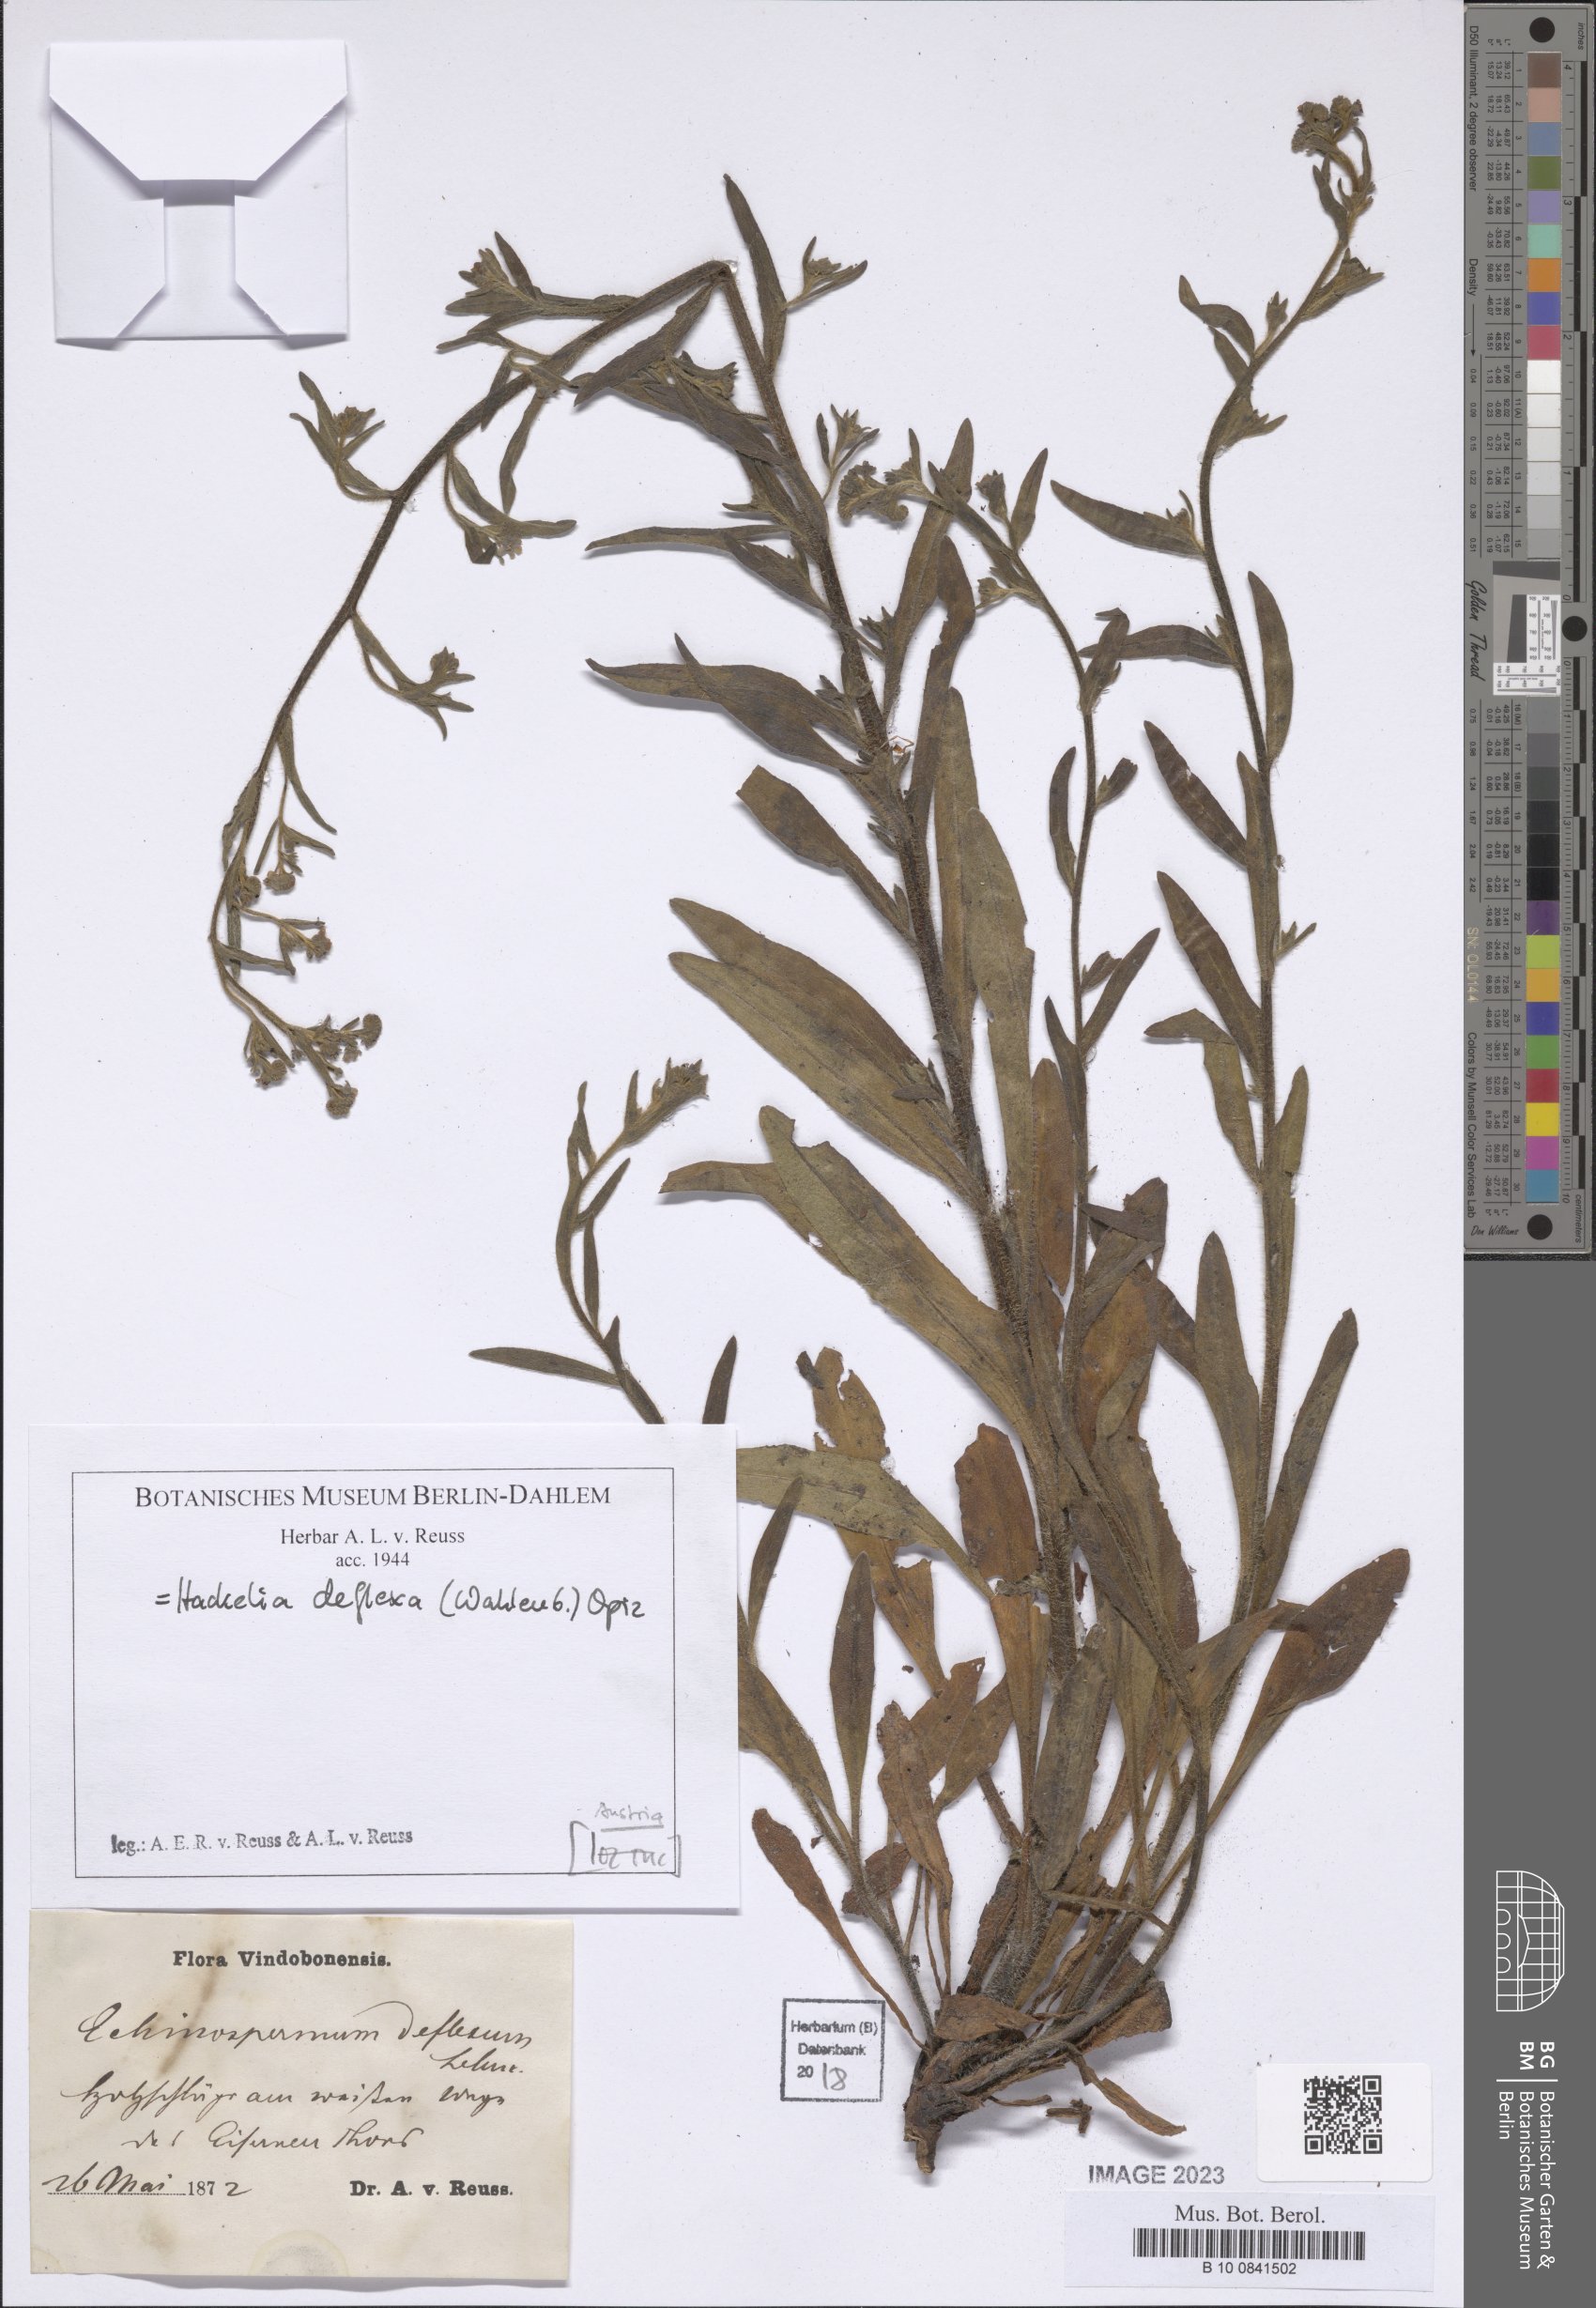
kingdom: Plantae
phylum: Tracheophyta
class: Magnoliopsida
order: Boraginales
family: Boraginaceae
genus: Hackelia
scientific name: Hackelia deflexa
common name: Nodding stickseed
